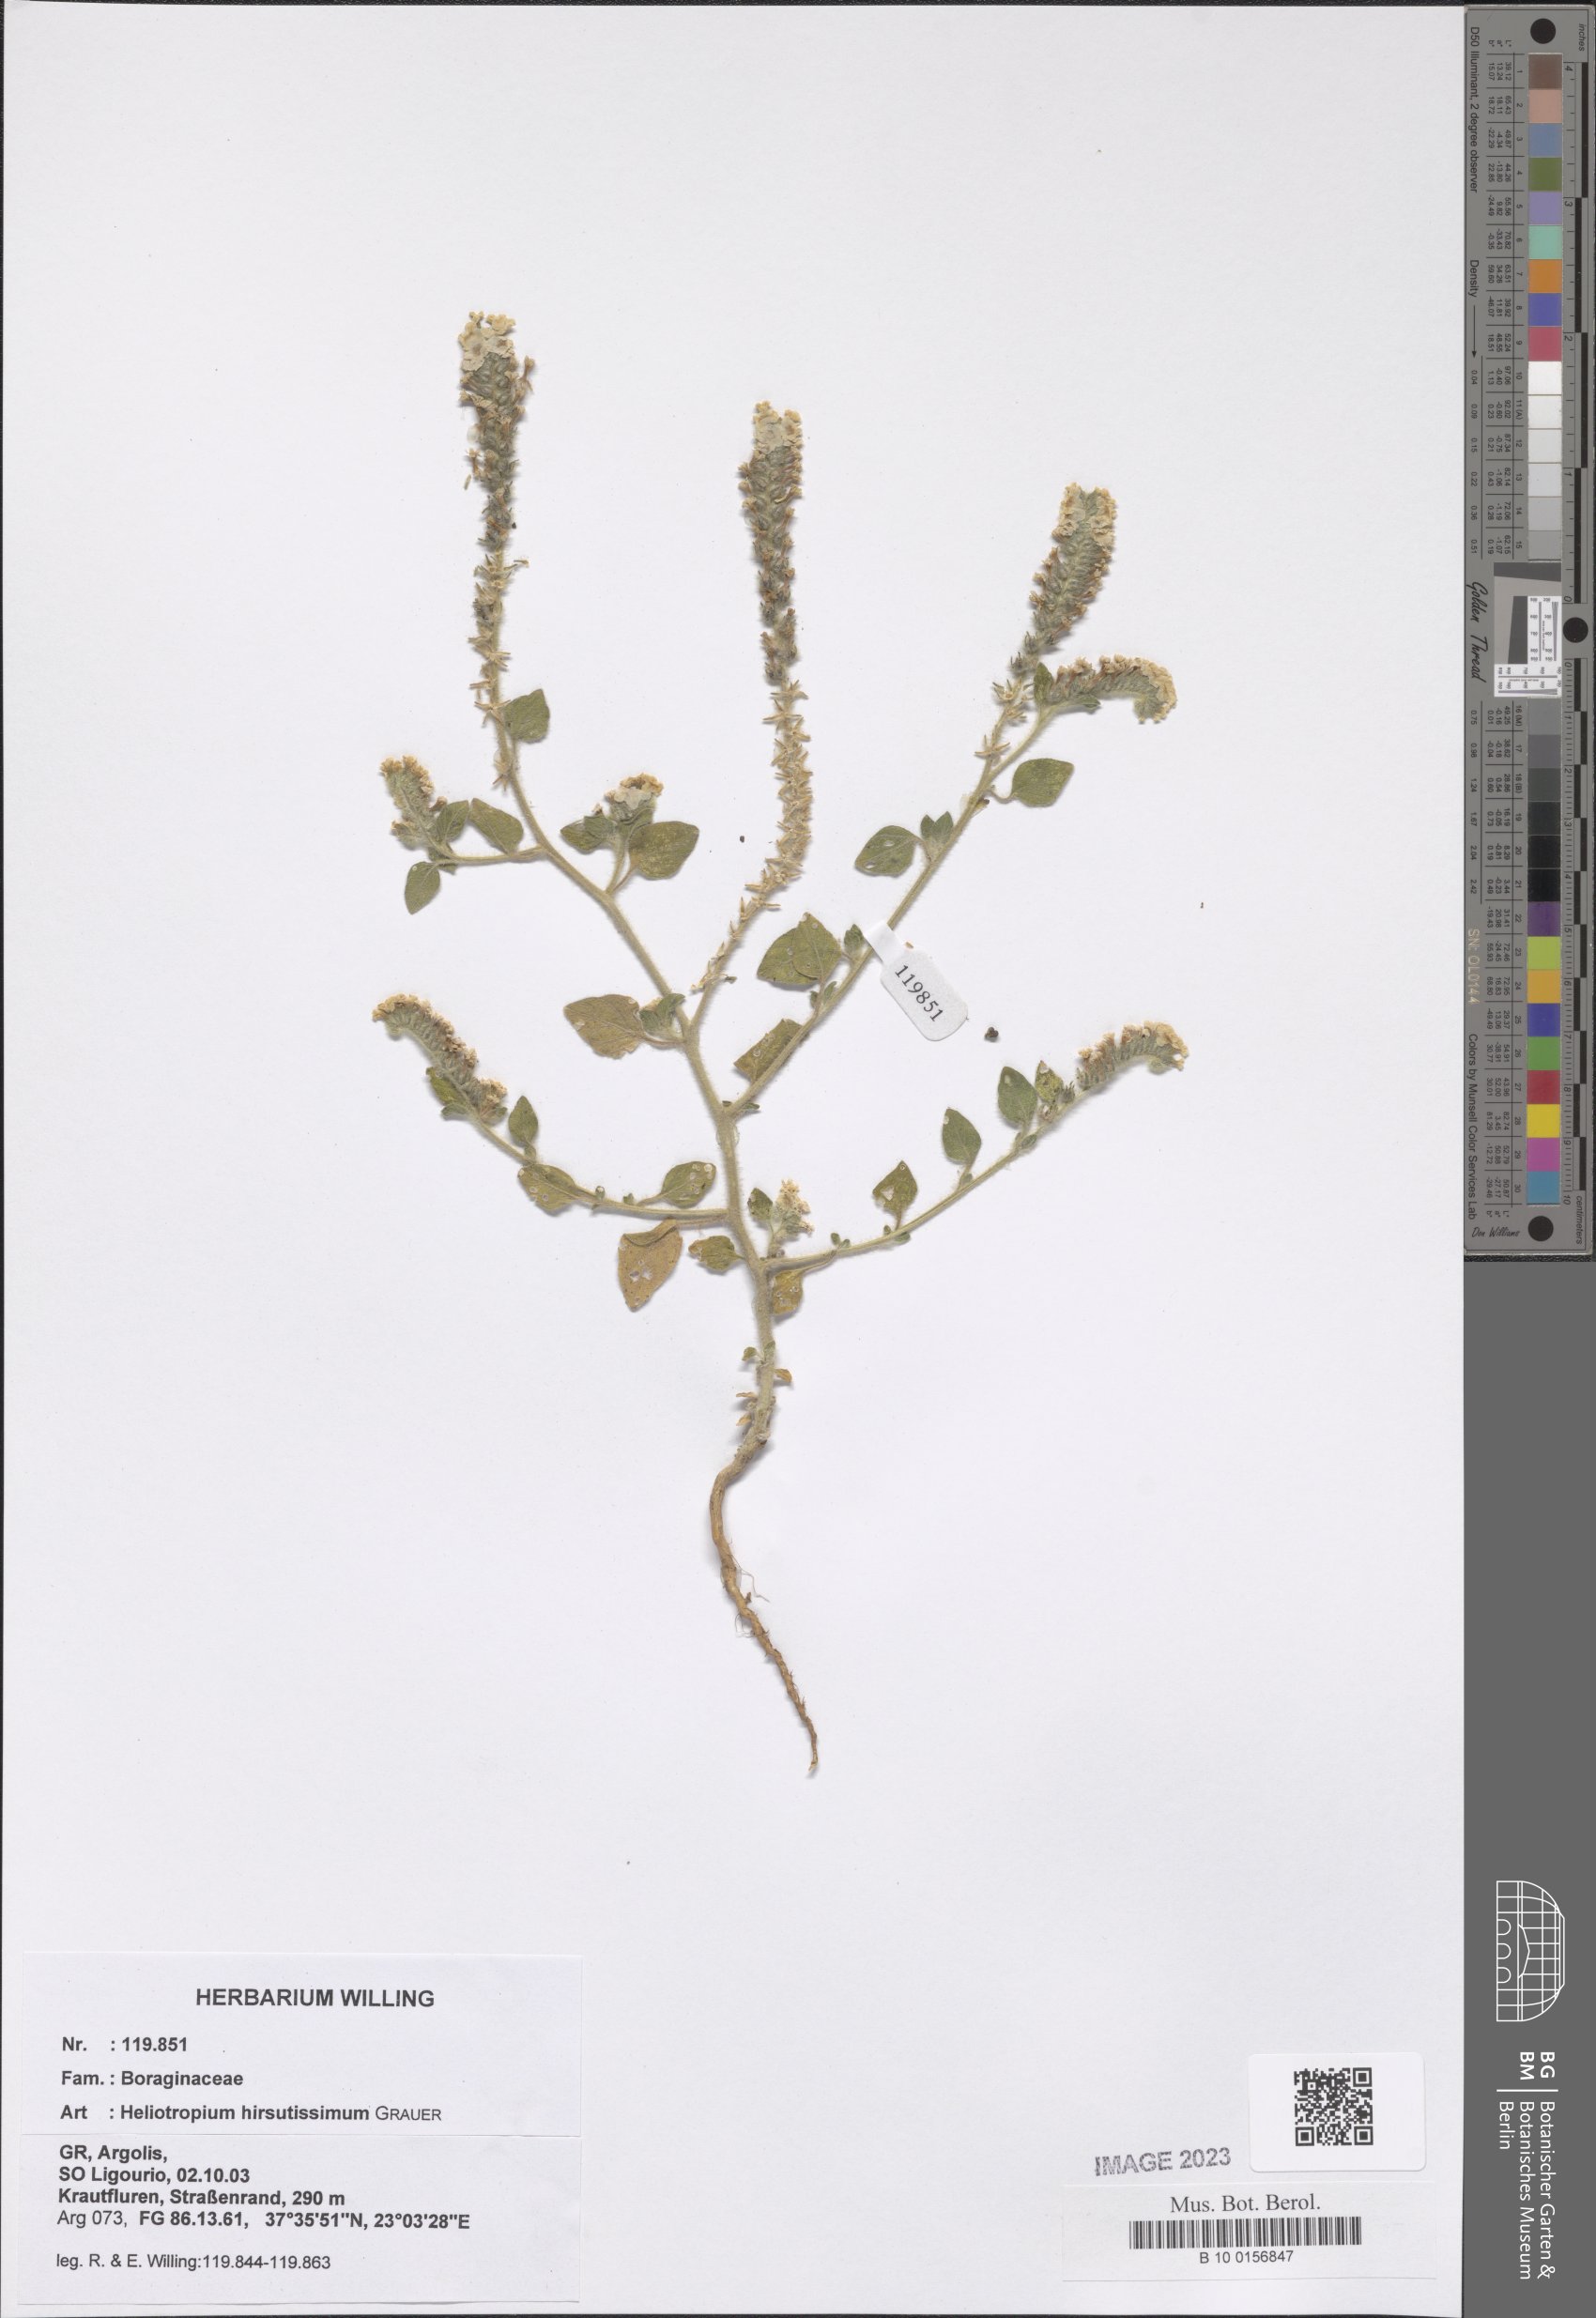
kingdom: Plantae
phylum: Tracheophyta
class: Magnoliopsida
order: Boraginales
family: Heliotropiaceae
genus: Heliotropium
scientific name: Heliotropium hirsutissimum
